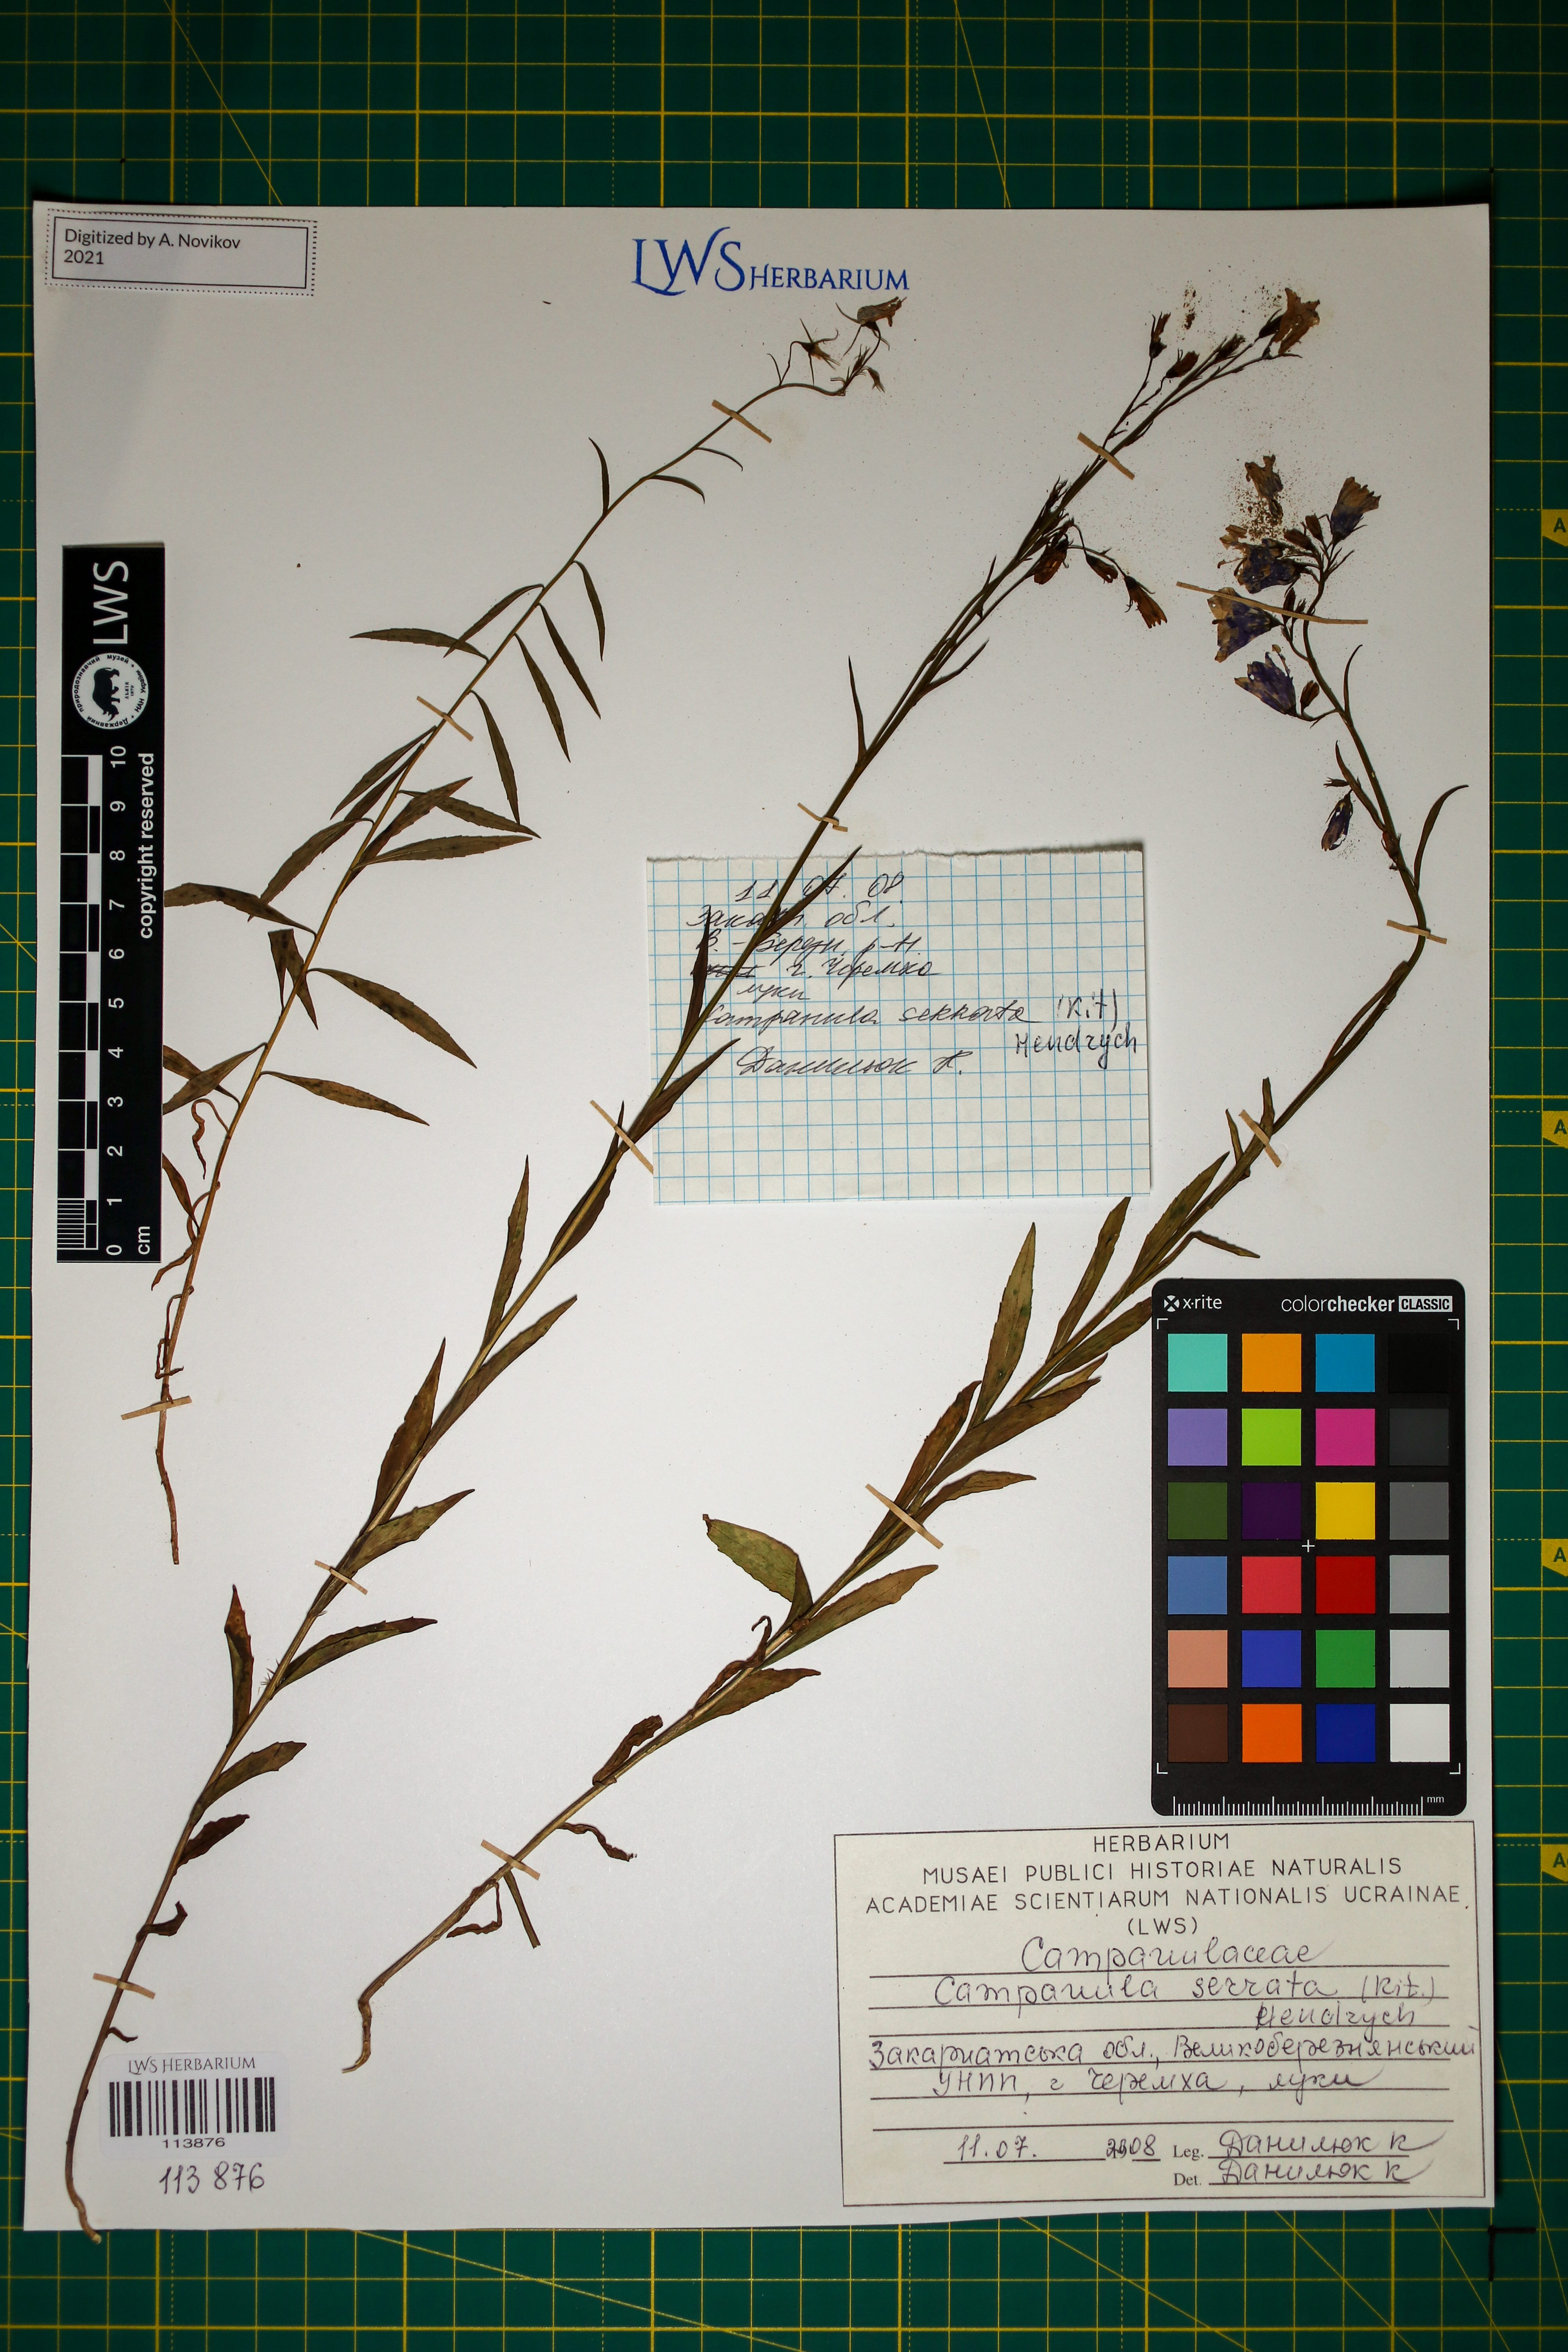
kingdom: Plantae
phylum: Tracheophyta
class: Magnoliopsida
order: Asterales
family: Campanulaceae
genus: Campanula
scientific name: Campanula serrata
